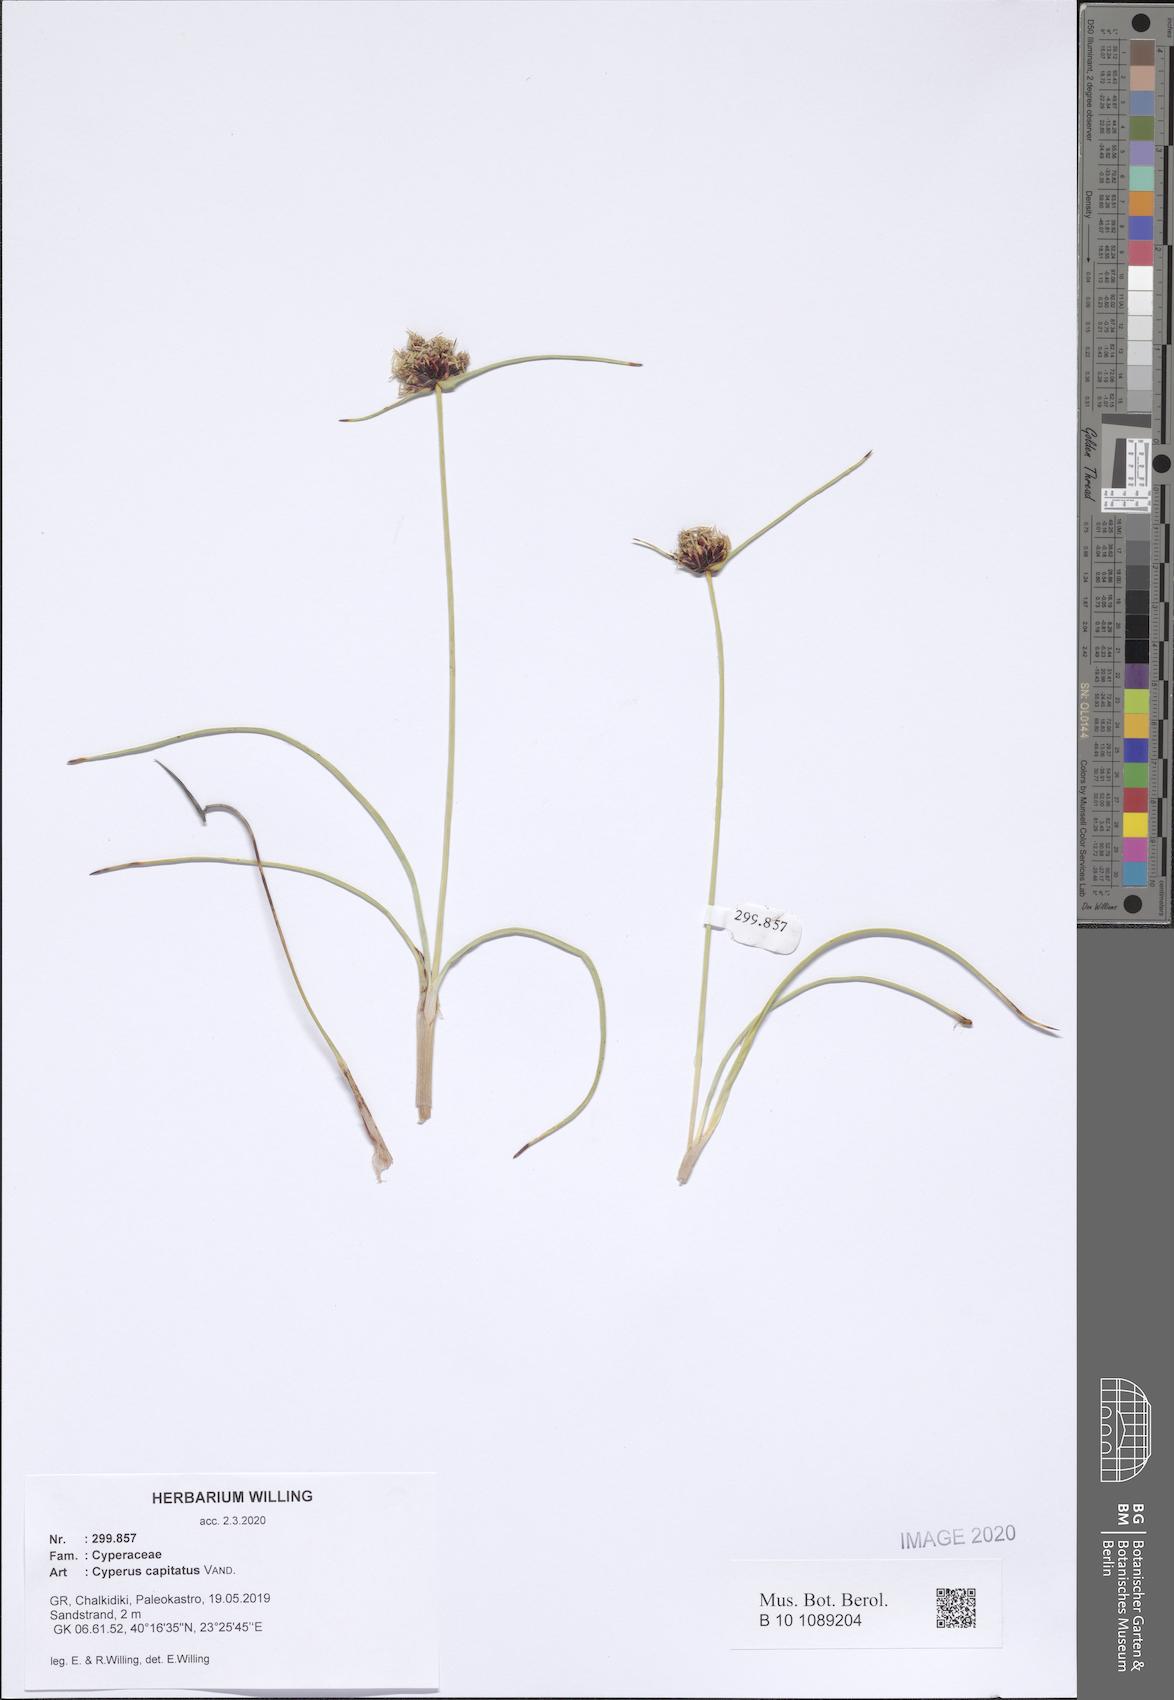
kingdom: Plantae
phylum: Tracheophyta
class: Liliopsida
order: Poales
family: Cyperaceae
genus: Cyperus
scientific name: Cyperus capitatus
